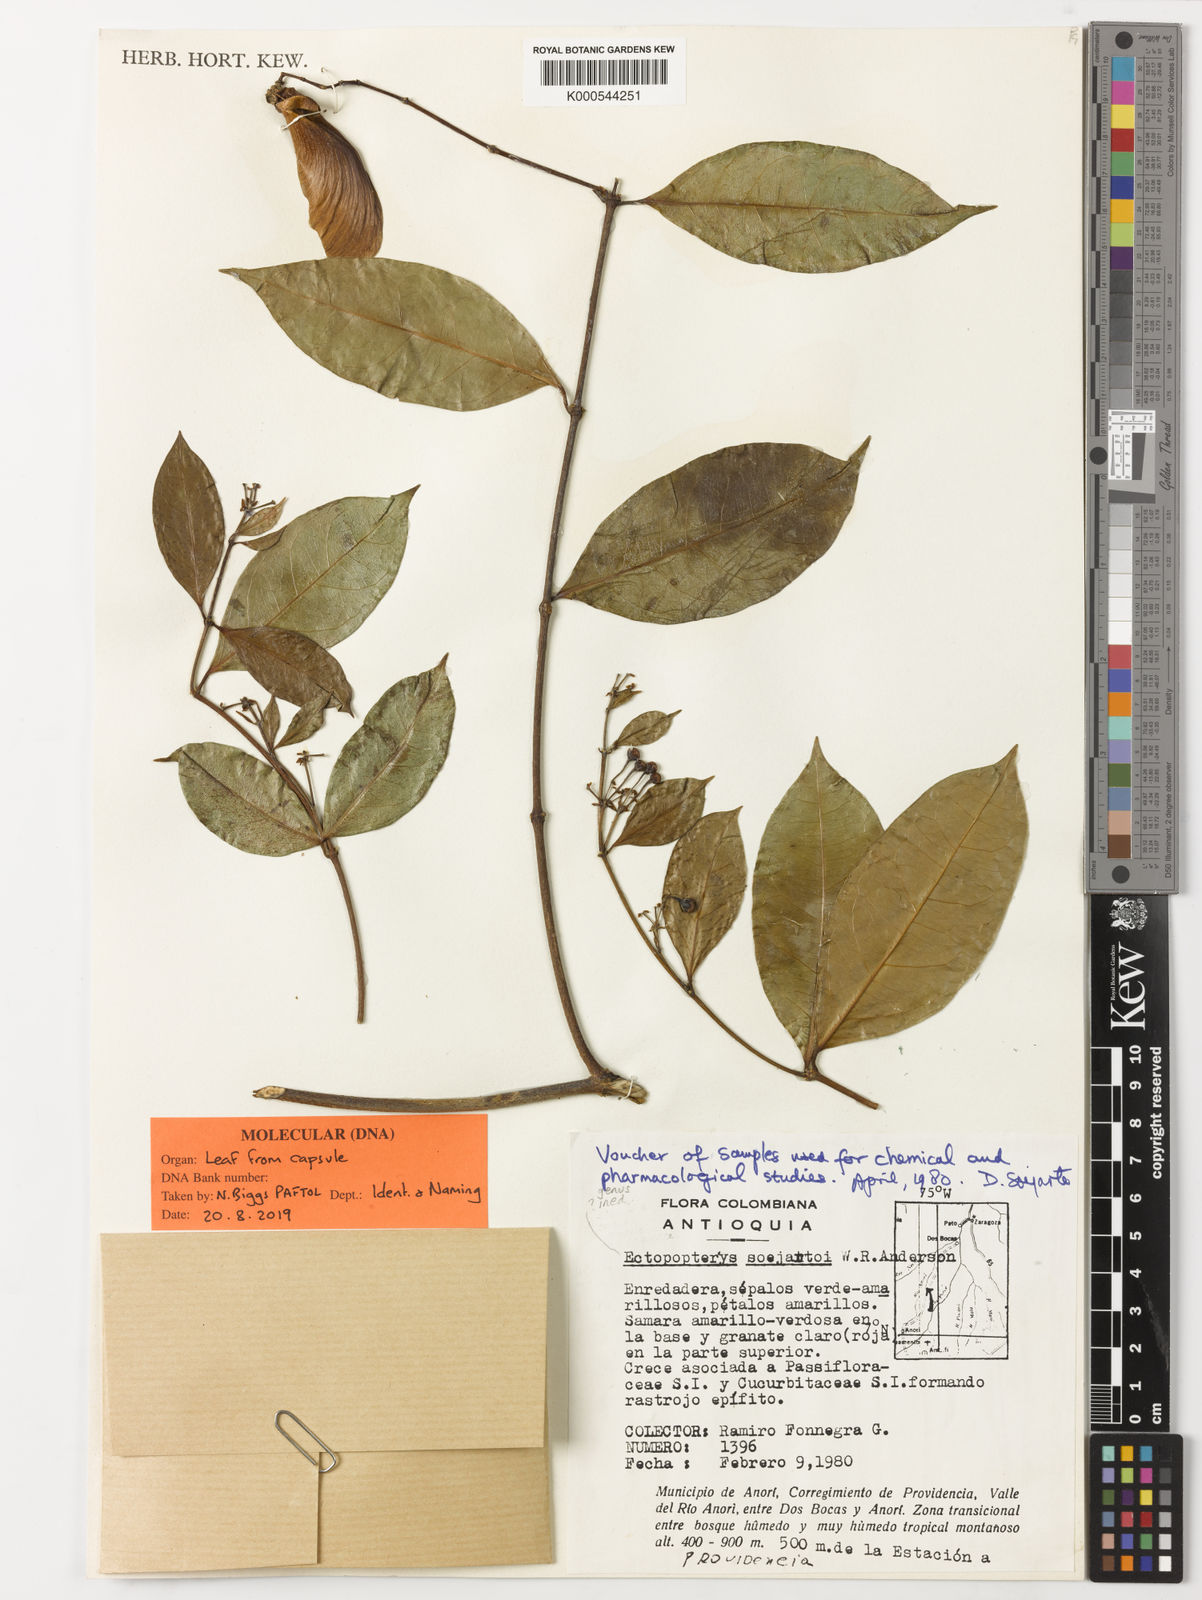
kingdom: Plantae
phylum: Tracheophyta
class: Magnoliopsida
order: Malpighiales
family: Malpighiaceae
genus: Ectopopterys
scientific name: Ectopopterys soejartoi
